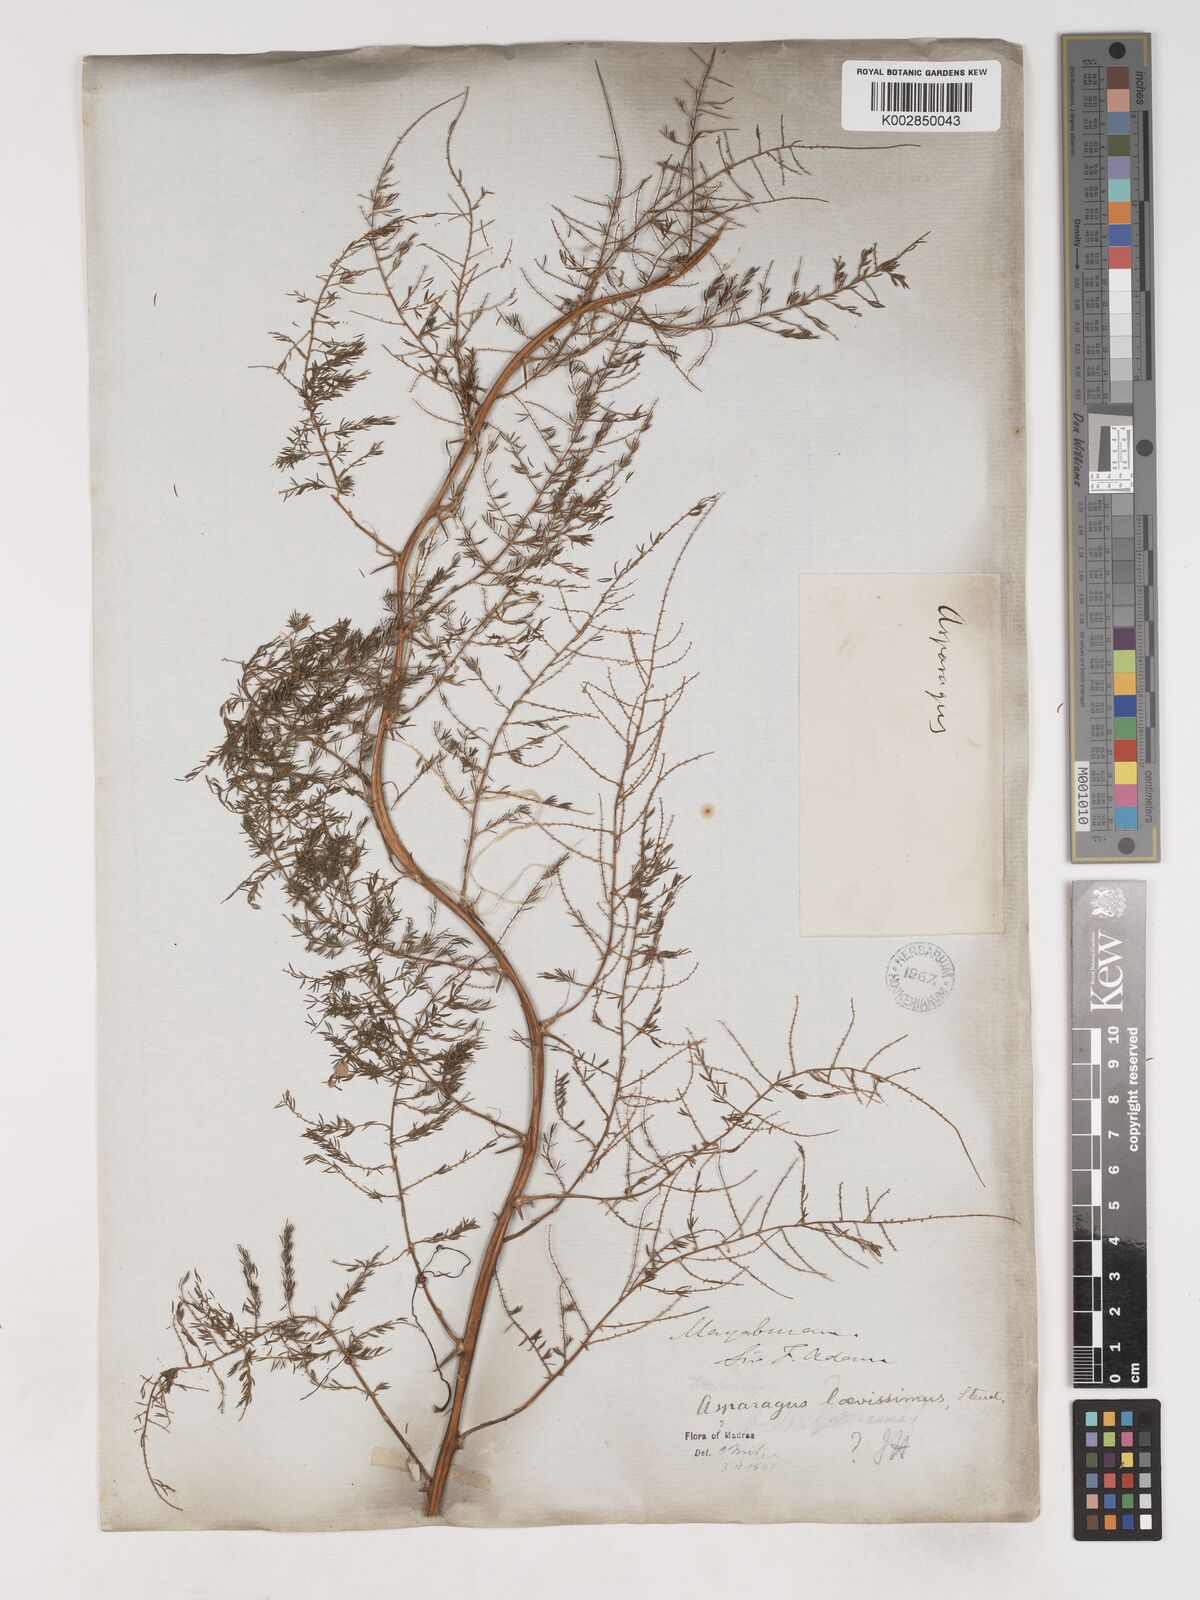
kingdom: Plantae
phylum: Tracheophyta
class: Liliopsida
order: Asparagales
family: Asparagaceae
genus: Asparagus
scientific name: Asparagus laevissimus
